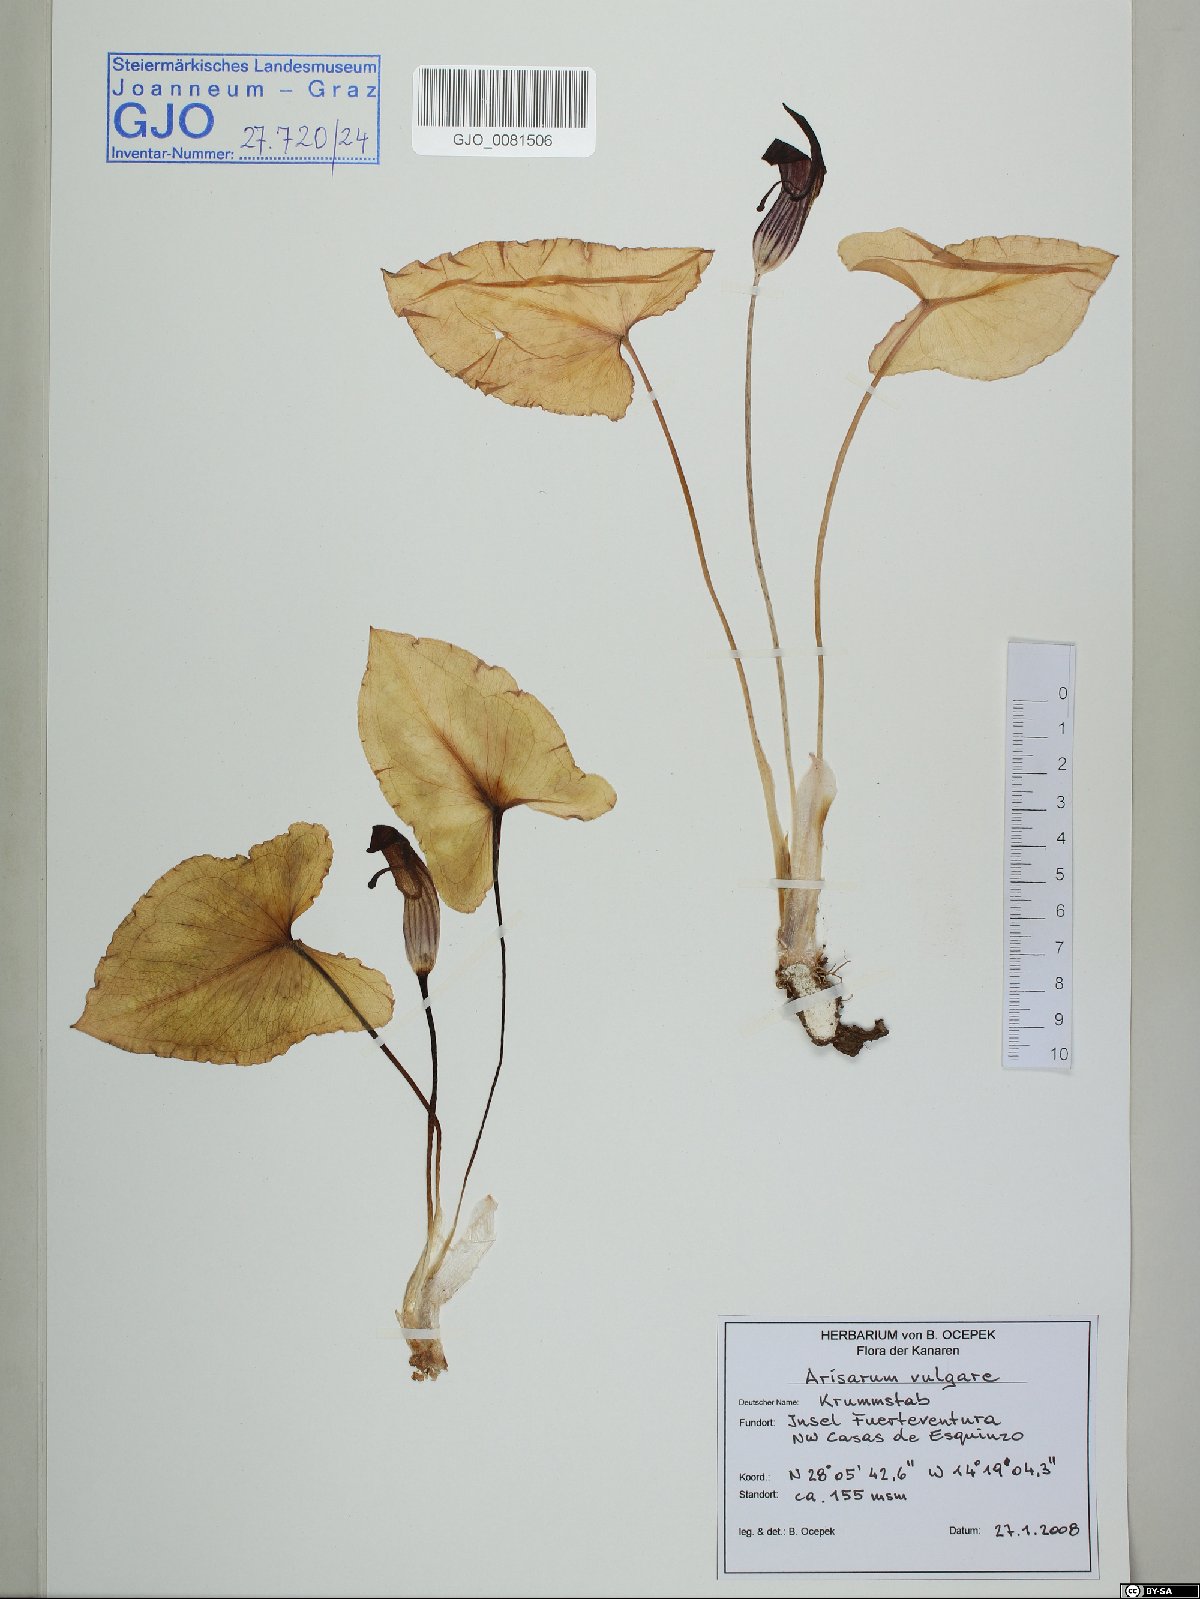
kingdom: Plantae
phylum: Tracheophyta
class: Liliopsida
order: Alismatales
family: Araceae
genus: Arisarum
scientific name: Arisarum vulgare
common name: Common arisarum
